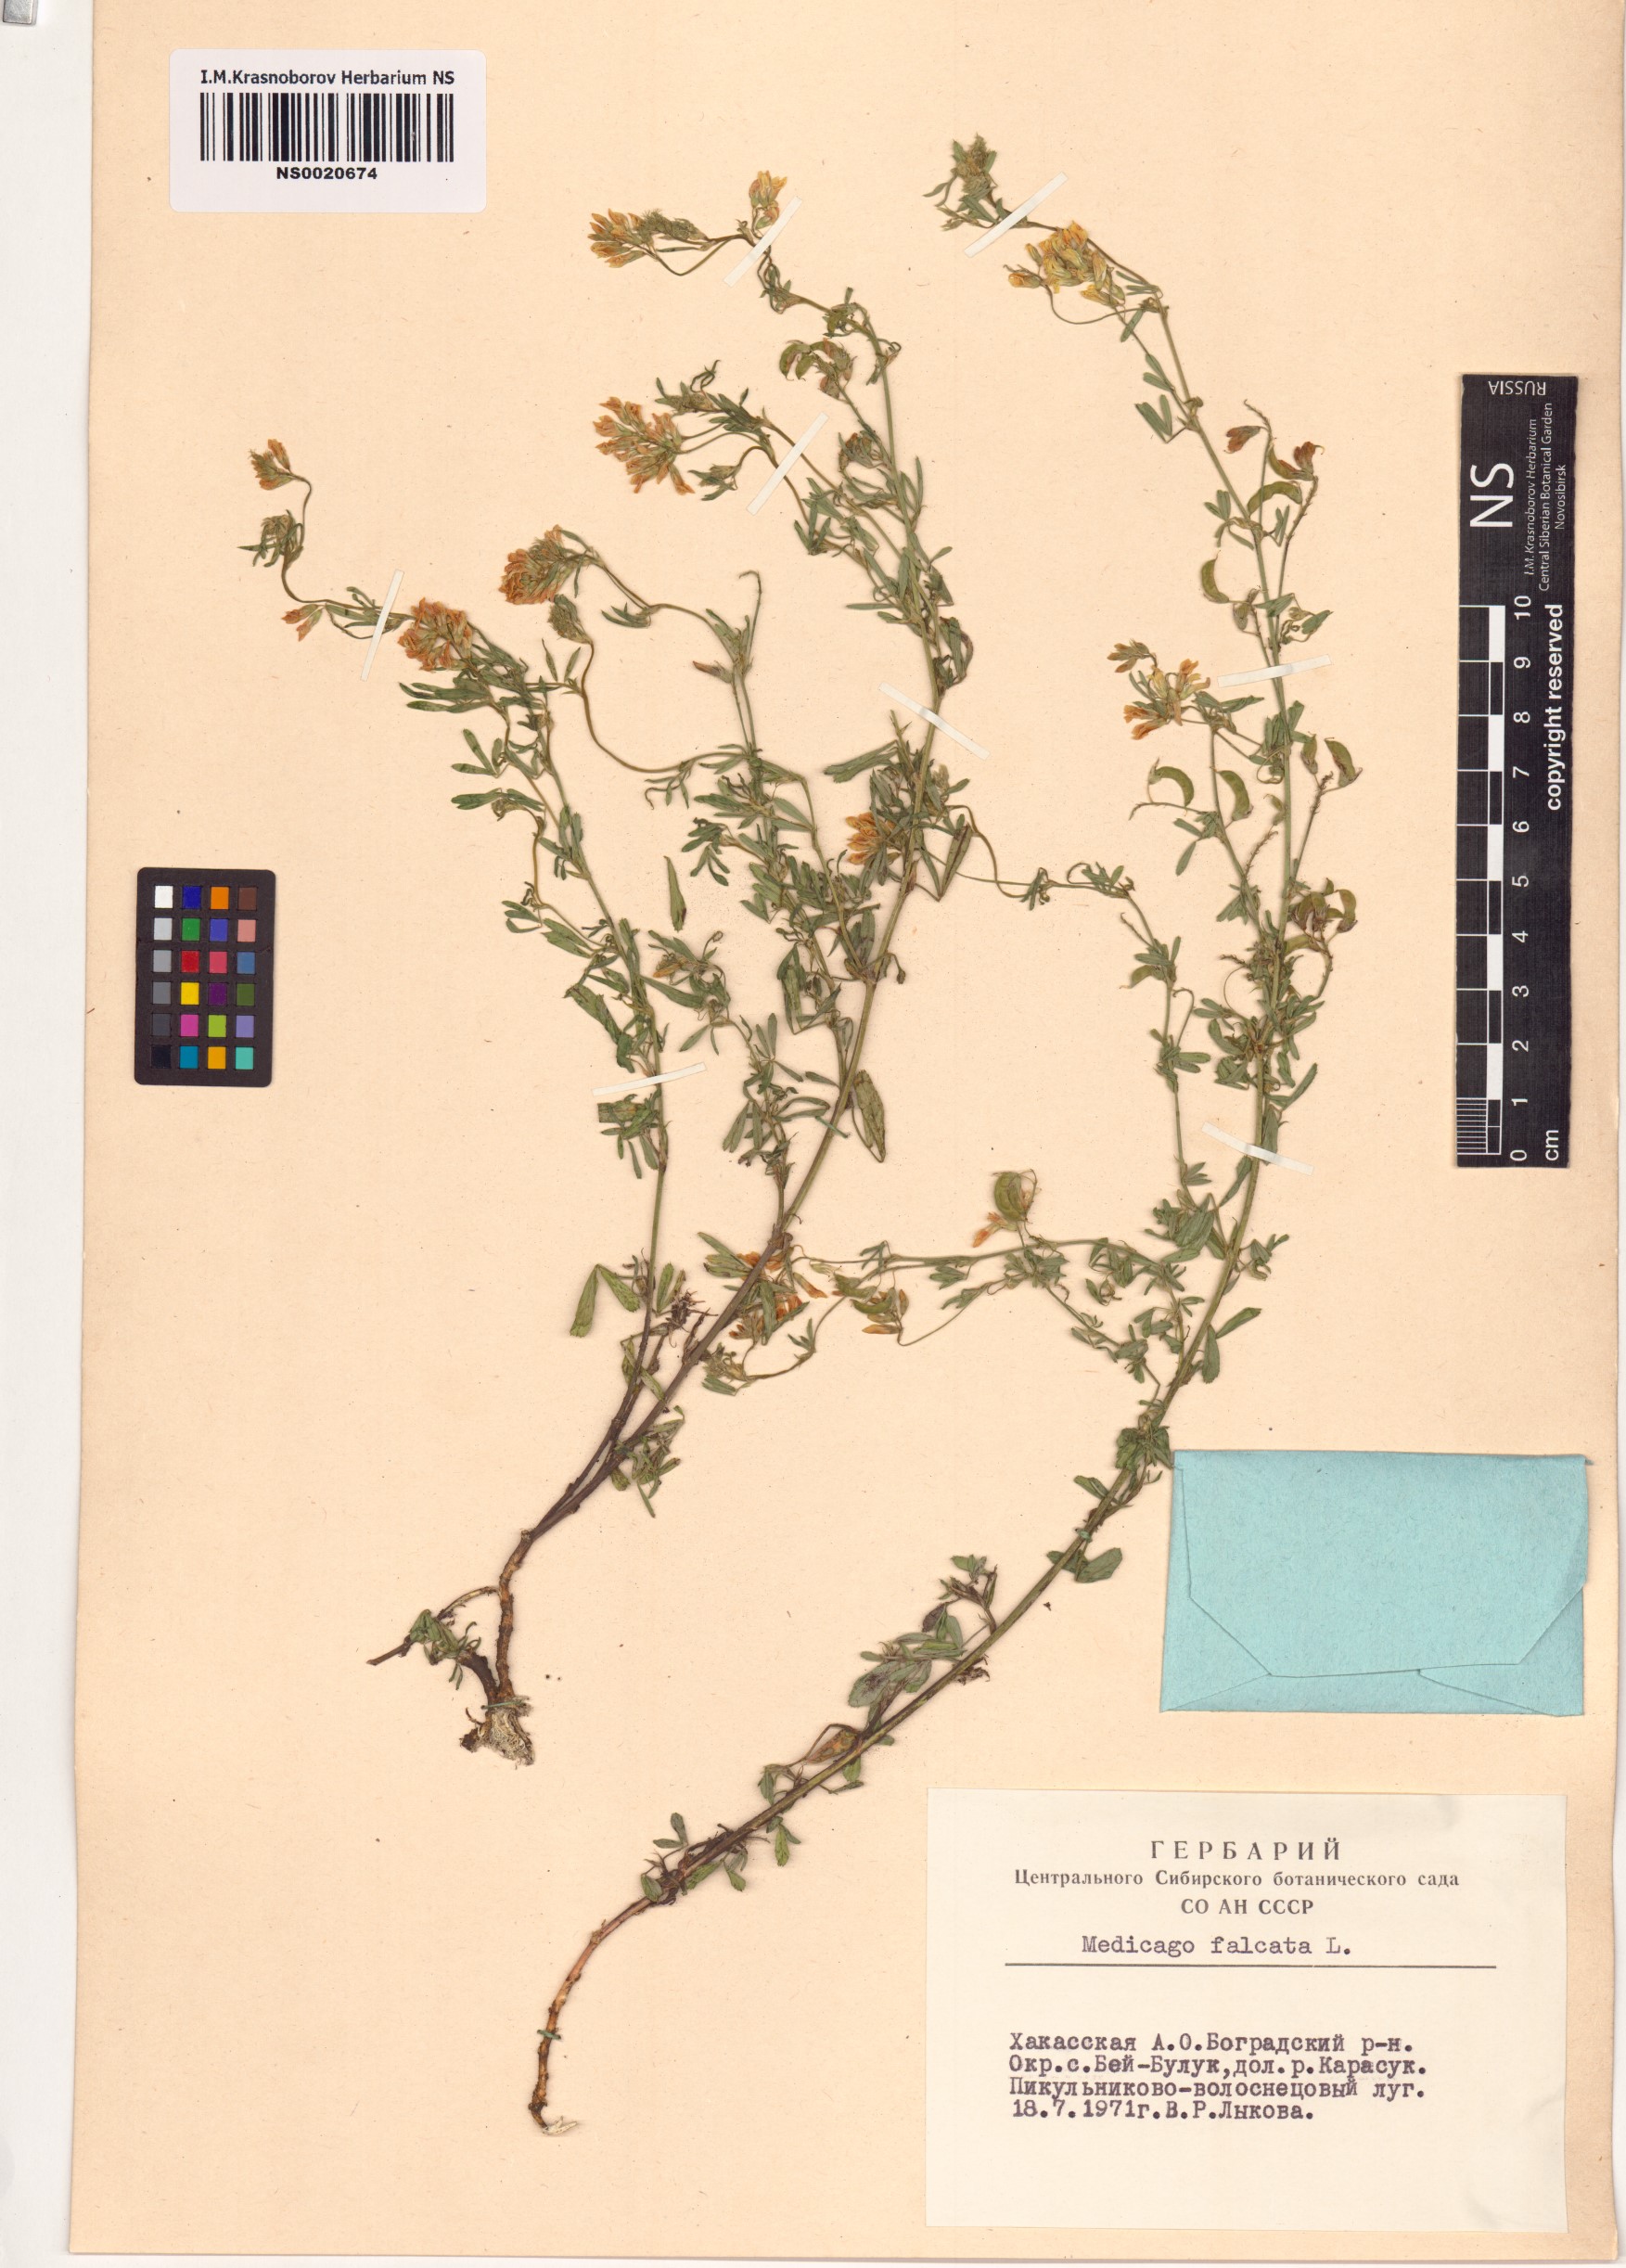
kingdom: Plantae
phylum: Tracheophyta
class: Magnoliopsida
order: Fabales
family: Fabaceae
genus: Medicago
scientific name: Medicago falcata
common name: Sickle medick
